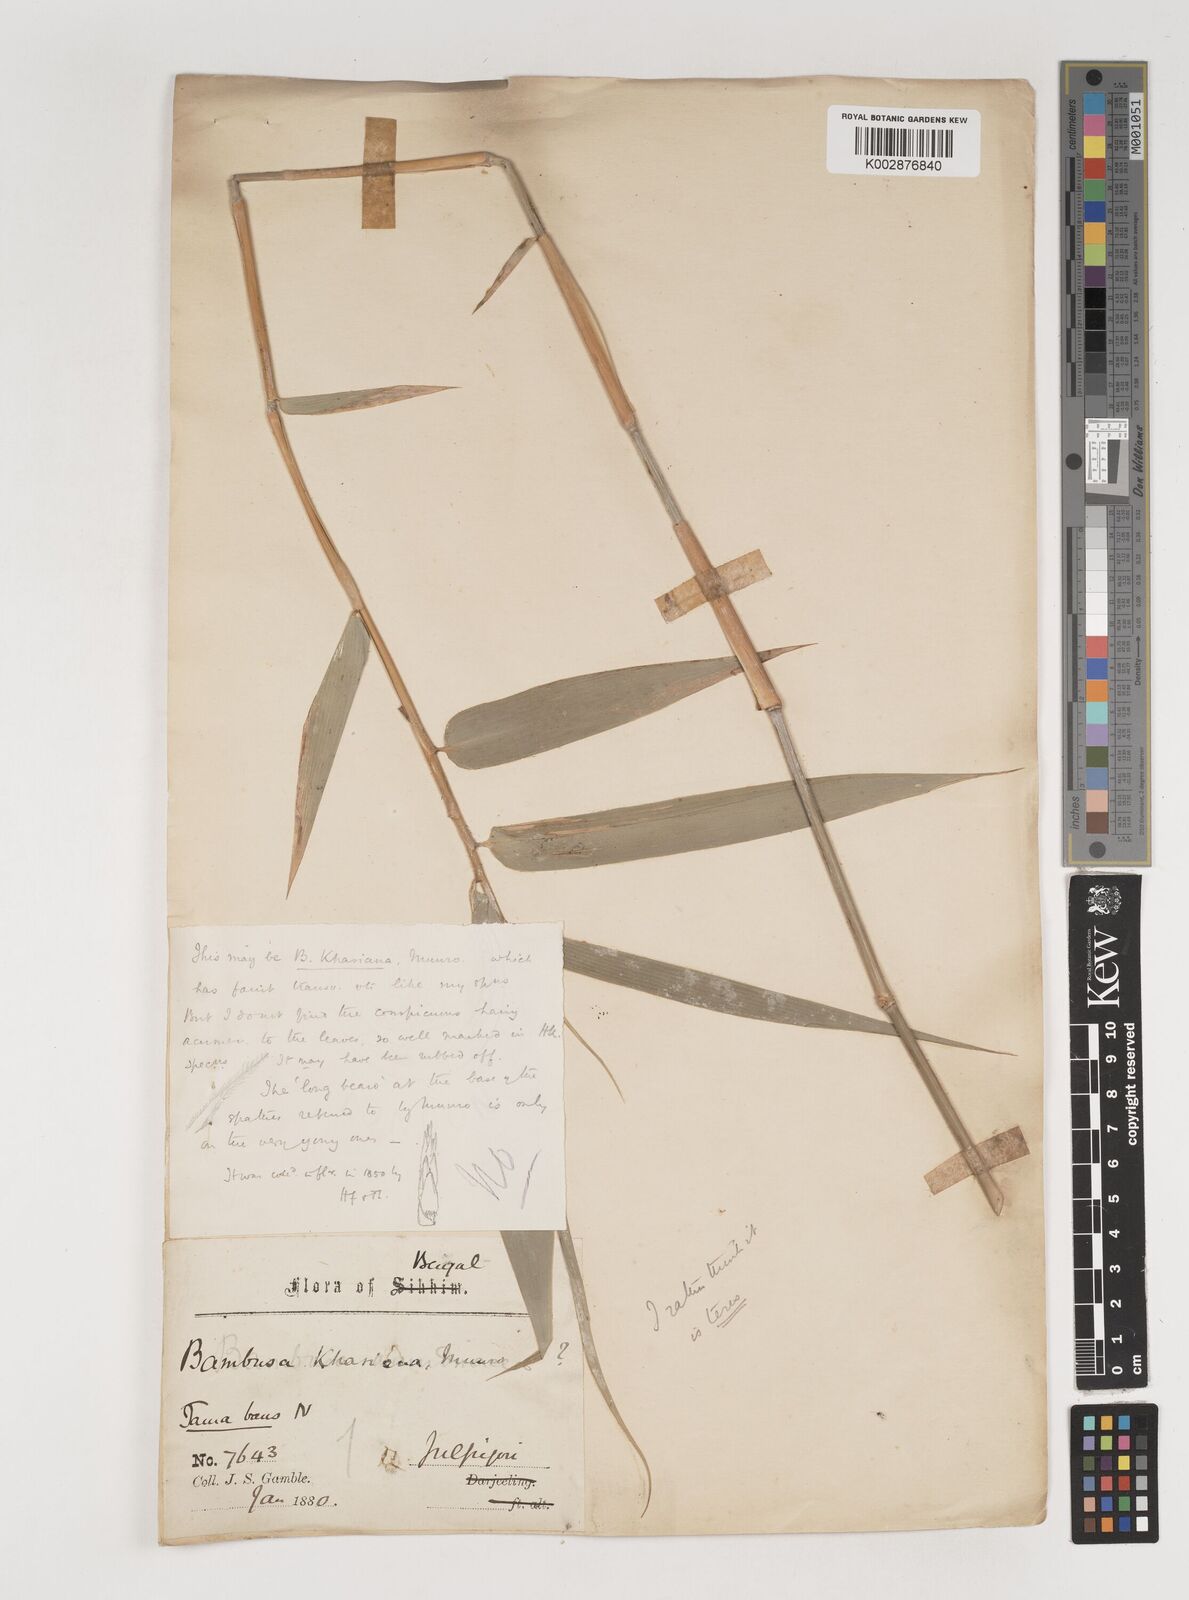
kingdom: Plantae
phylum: Tracheophyta
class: Liliopsida
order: Poales
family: Poaceae
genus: Bambusa
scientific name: Bambusa teres
